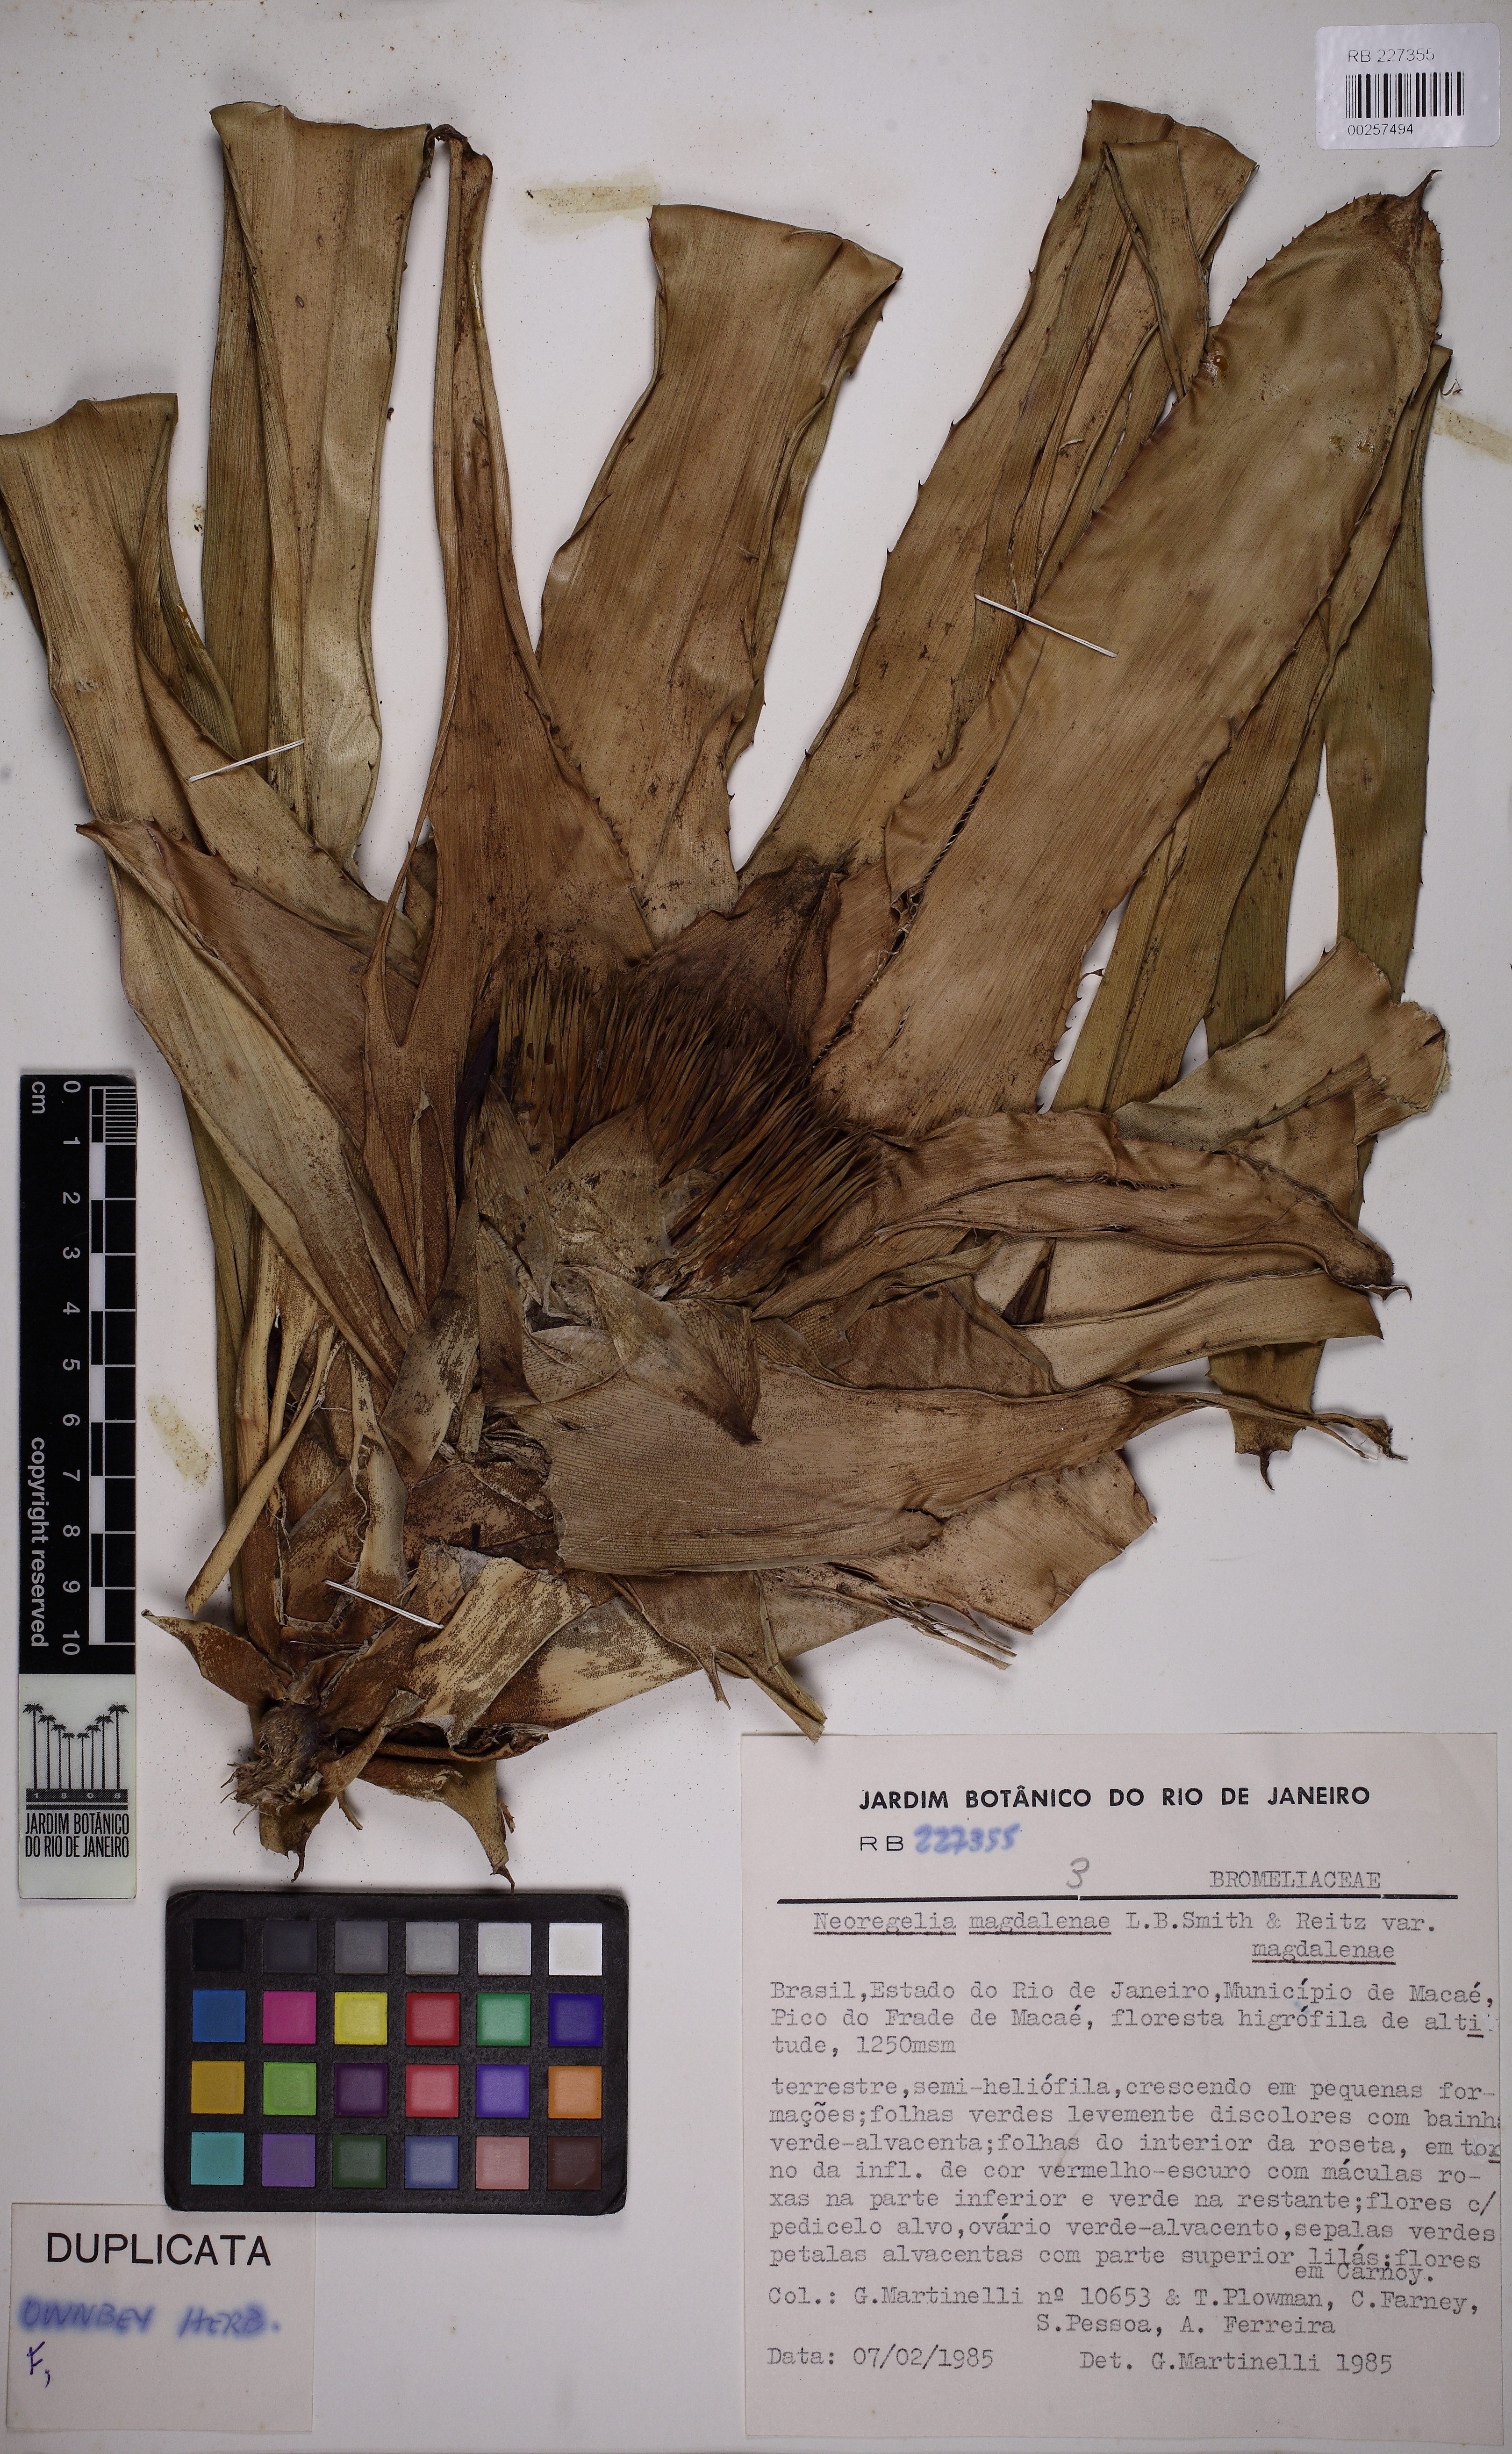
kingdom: Plantae
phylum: Tracheophyta
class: Liliopsida
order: Poales
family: Bromeliaceae
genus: Neoregelia
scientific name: Neoregelia magdalenae
